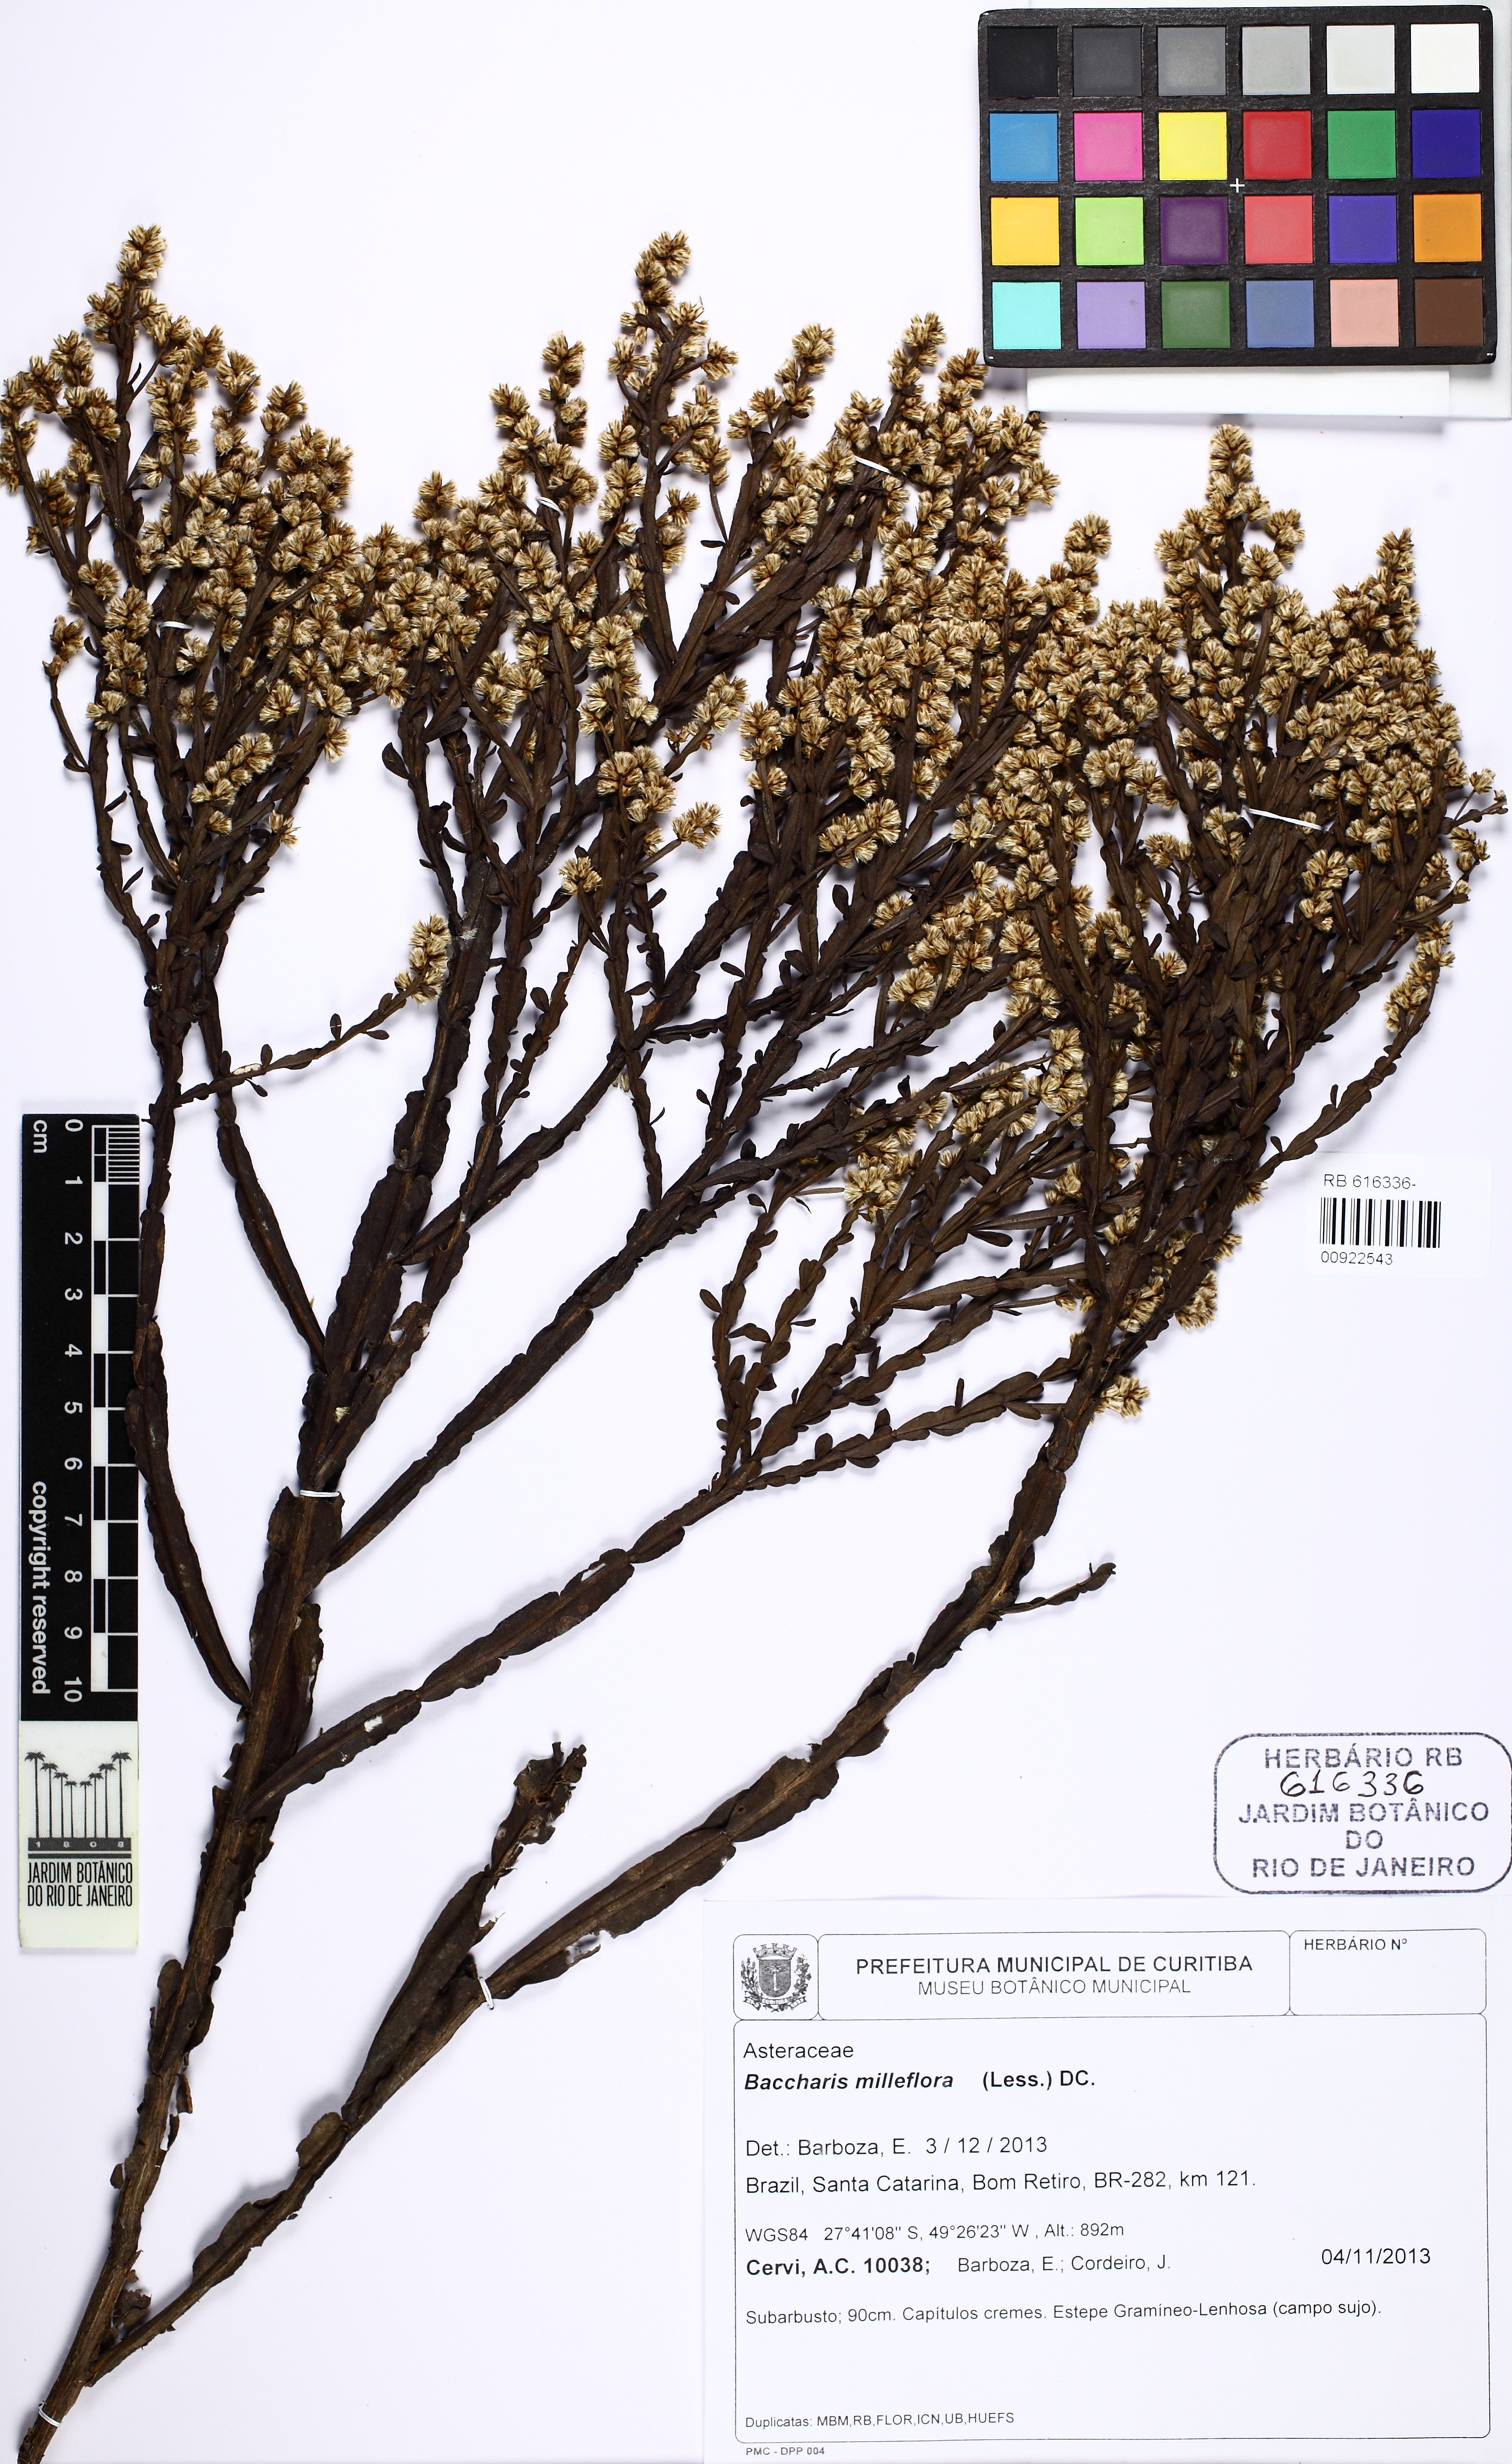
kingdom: Plantae
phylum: Tracheophyta
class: Magnoliopsida
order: Asterales
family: Asteraceae
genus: Baccharis
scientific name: Baccharis milleflora
